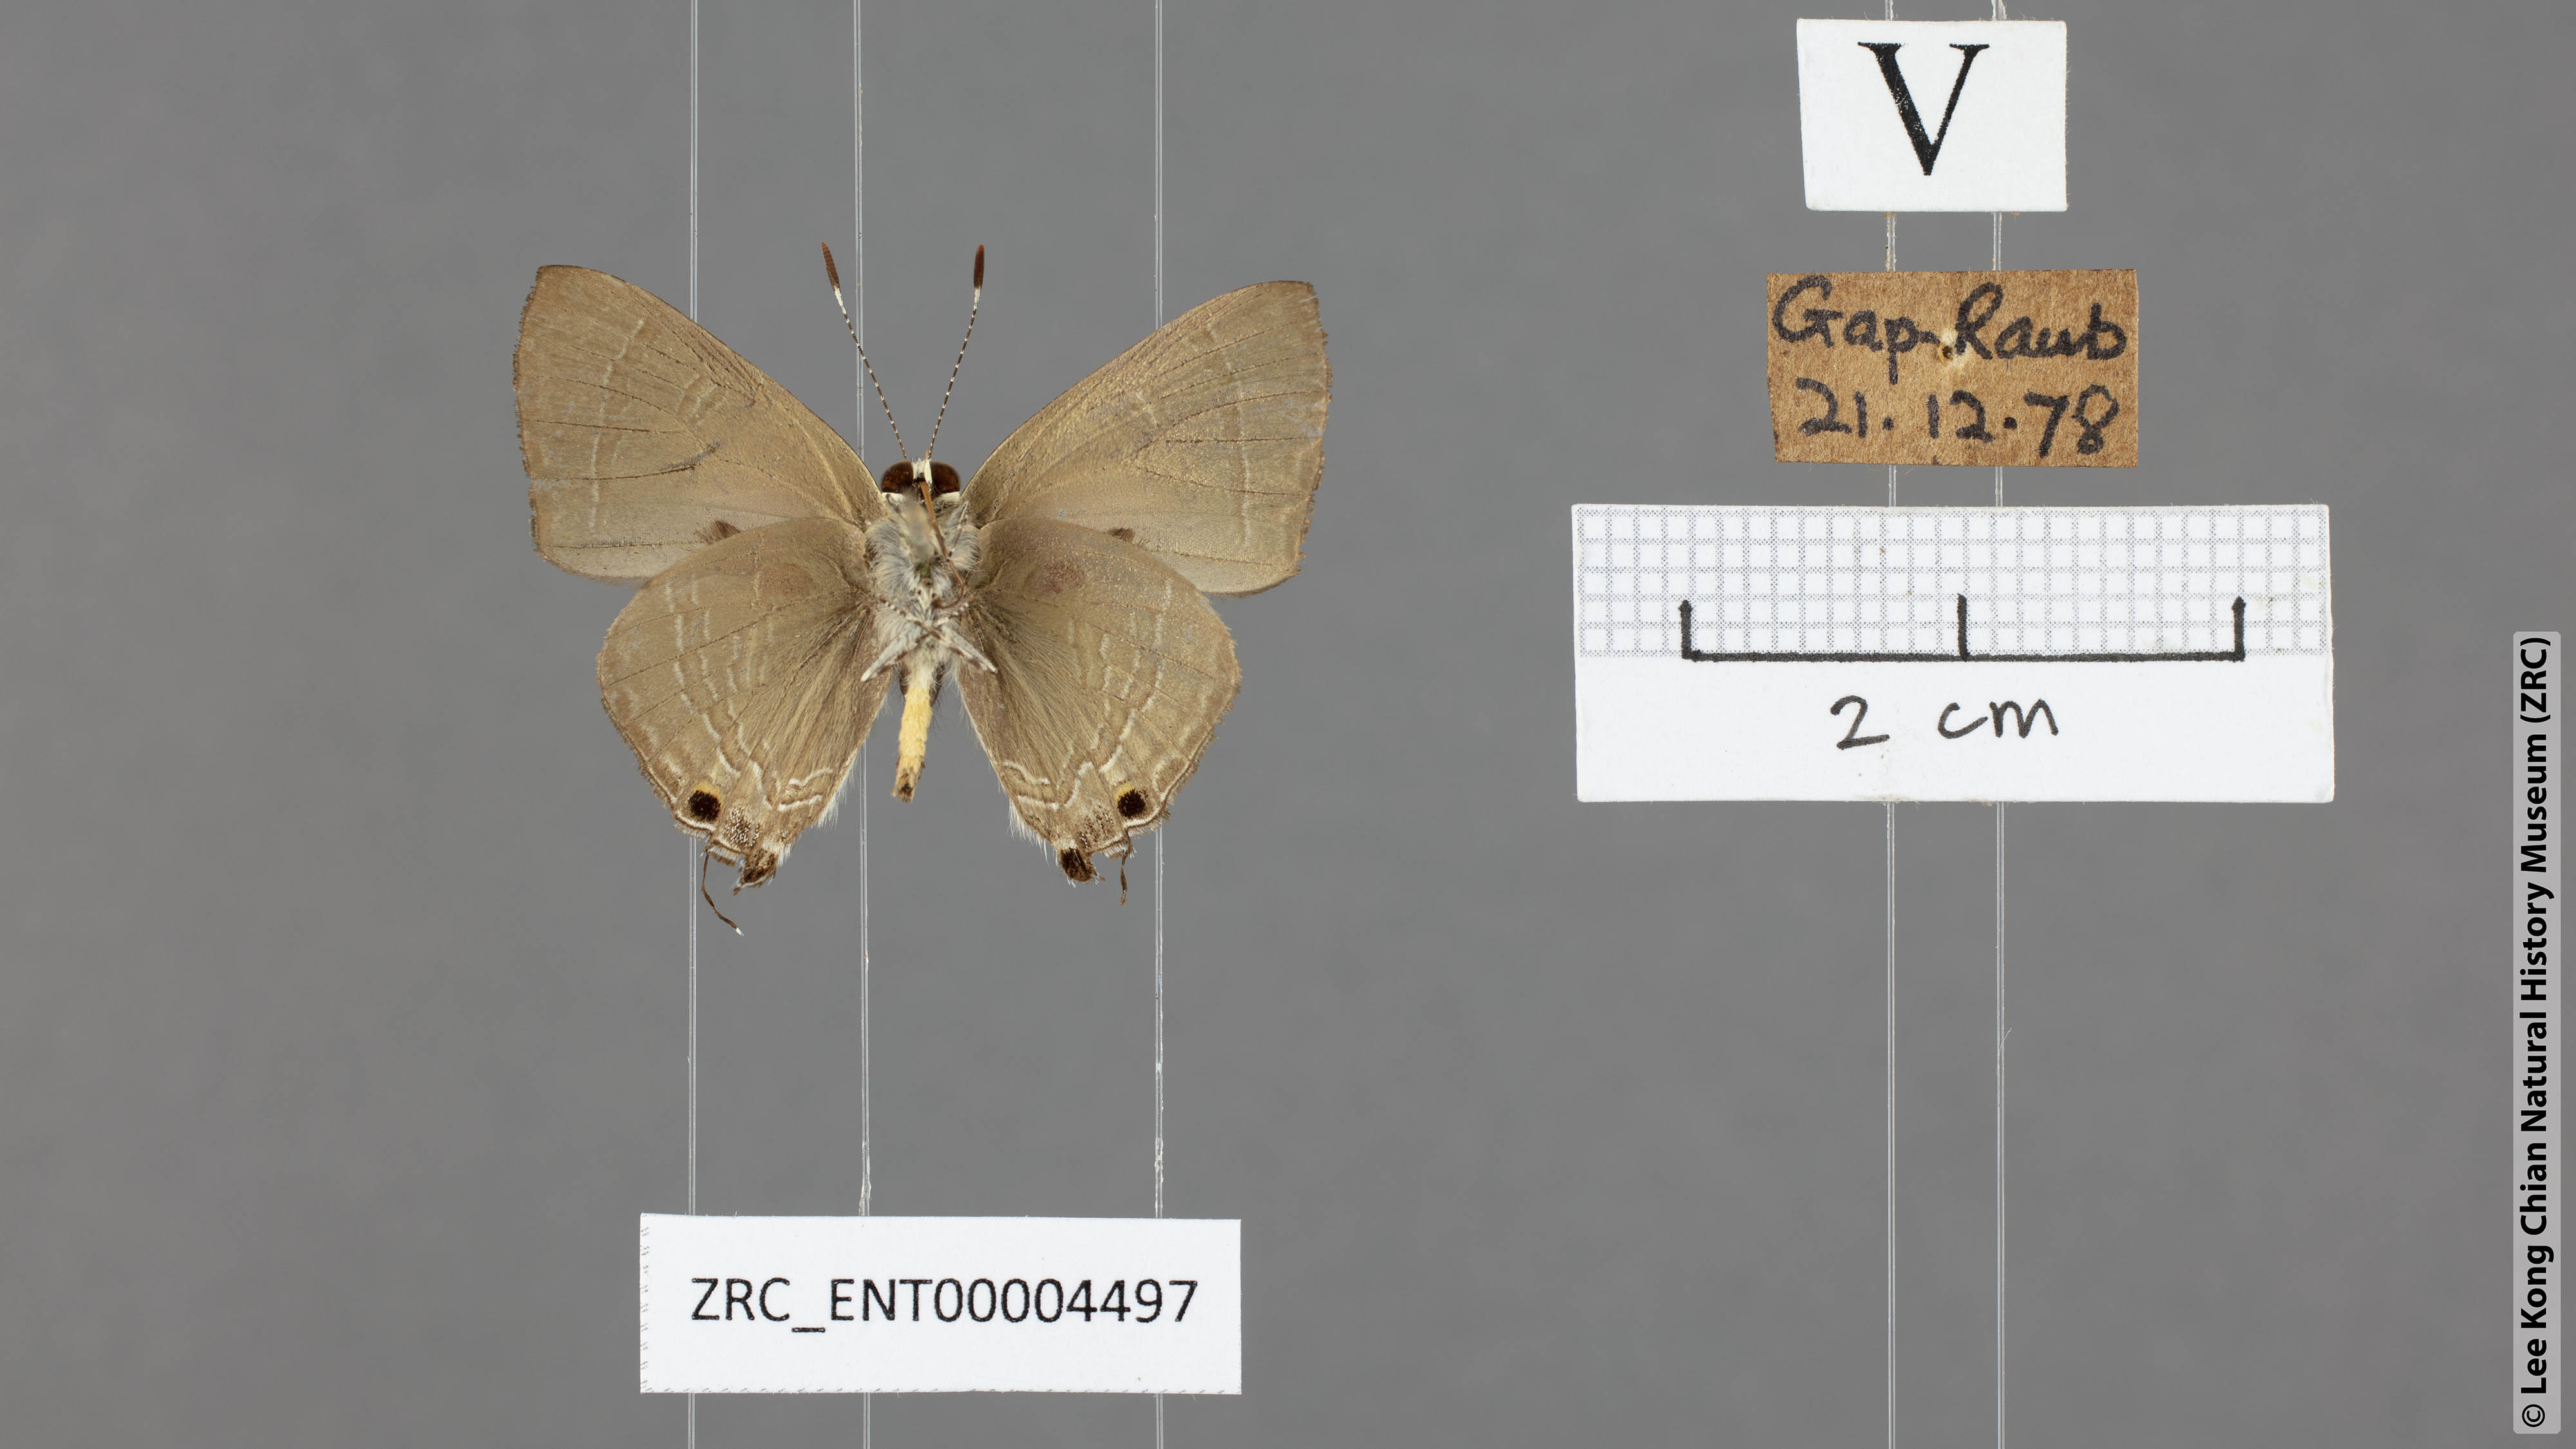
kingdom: Animalia
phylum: Arthropoda
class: Insecta
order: Lepidoptera
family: Lycaenidae
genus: Rapala
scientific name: Rapala manea
